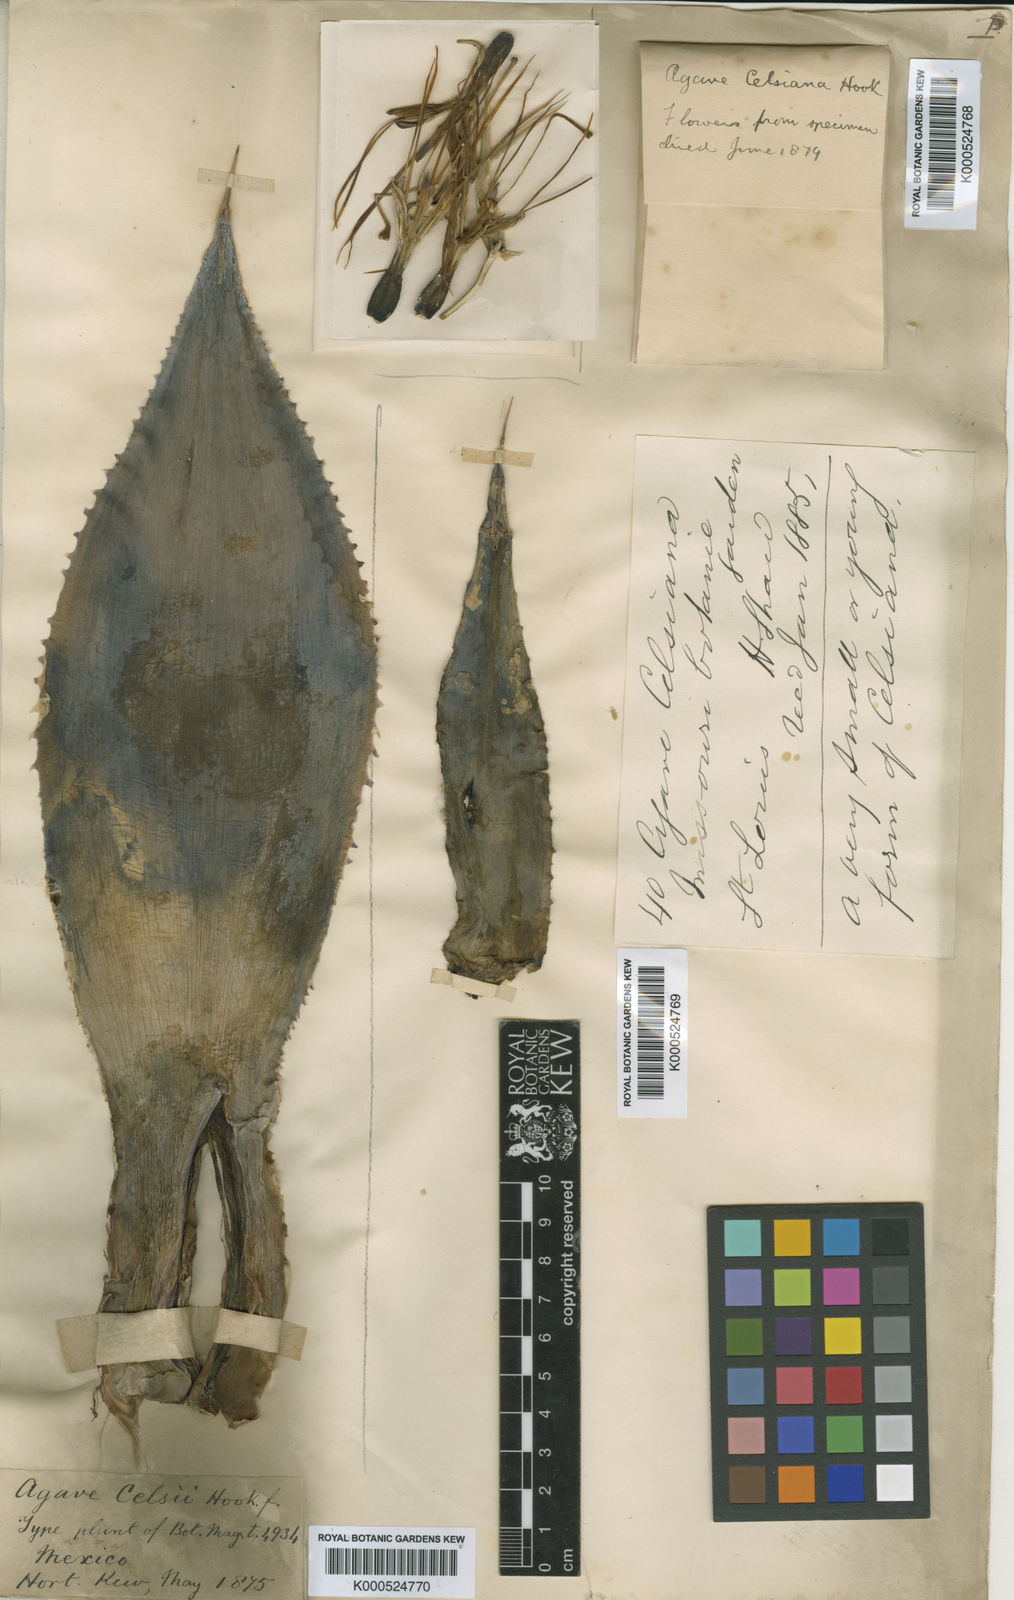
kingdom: Plantae
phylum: Tracheophyta
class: Liliopsida
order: Asparagales
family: Asparagaceae
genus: Agave
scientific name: Agave mitis
